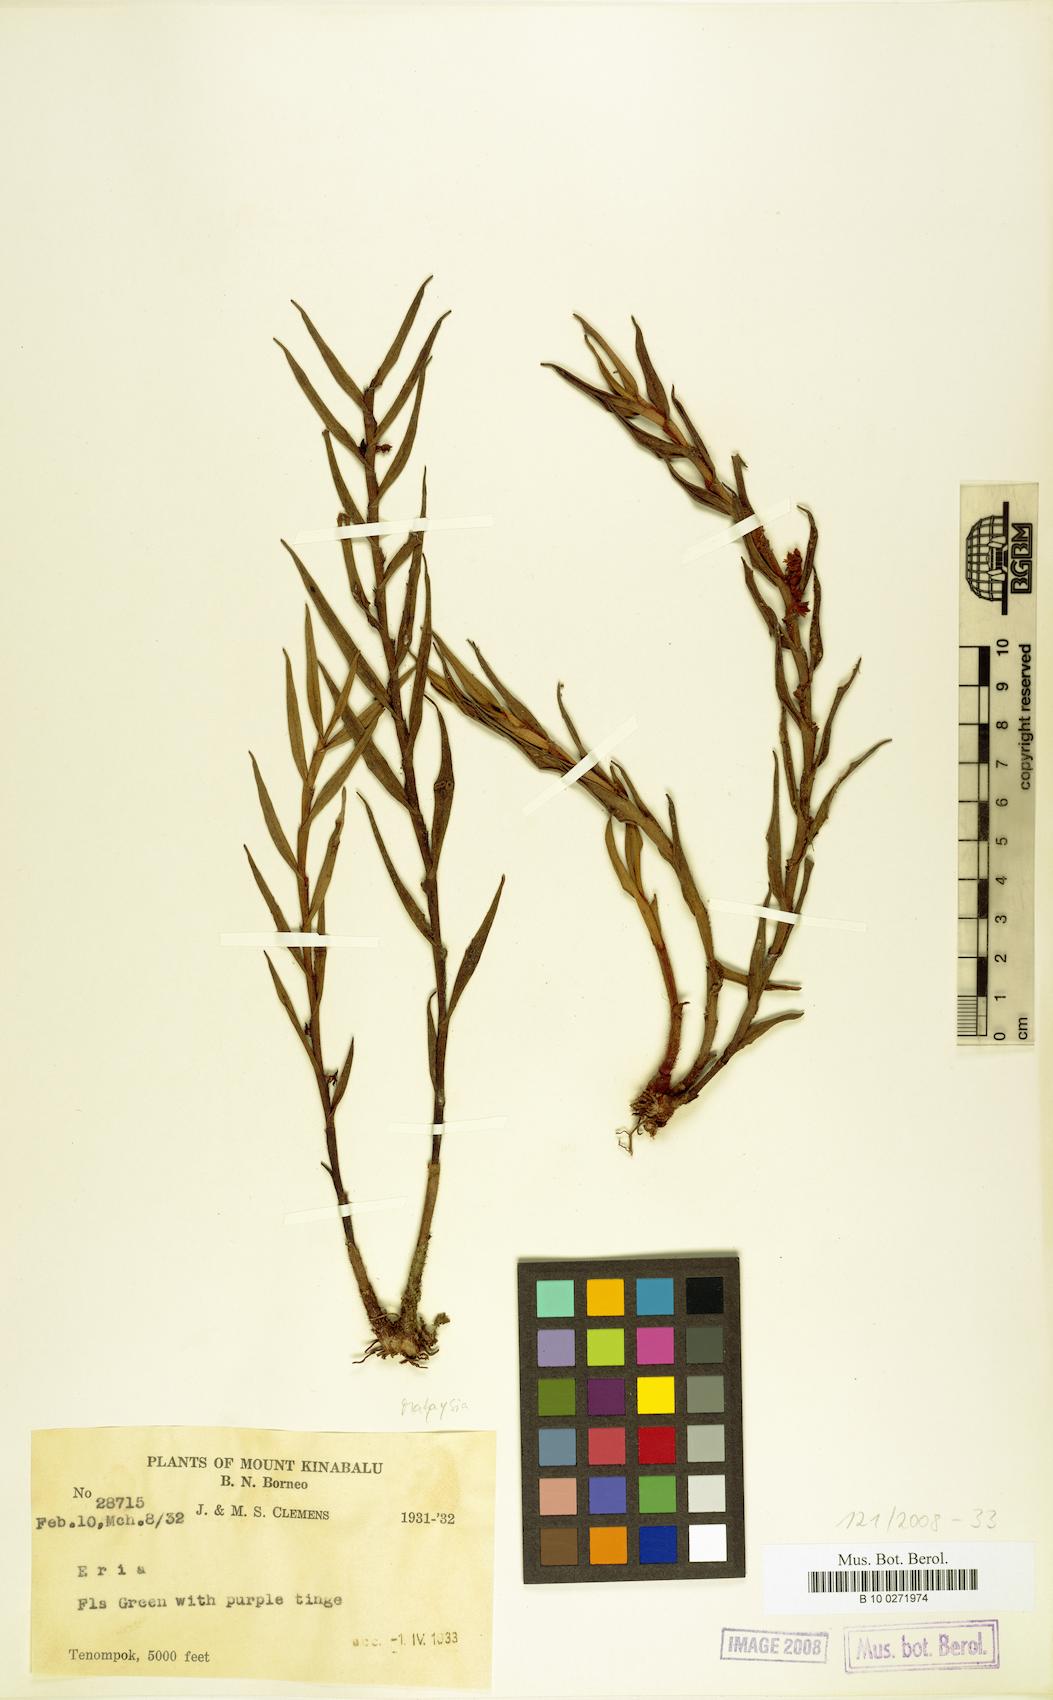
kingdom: Plantae
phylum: Tracheophyta
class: Liliopsida
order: Asparagales
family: Orchidaceae
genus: Eria
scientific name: Eria
